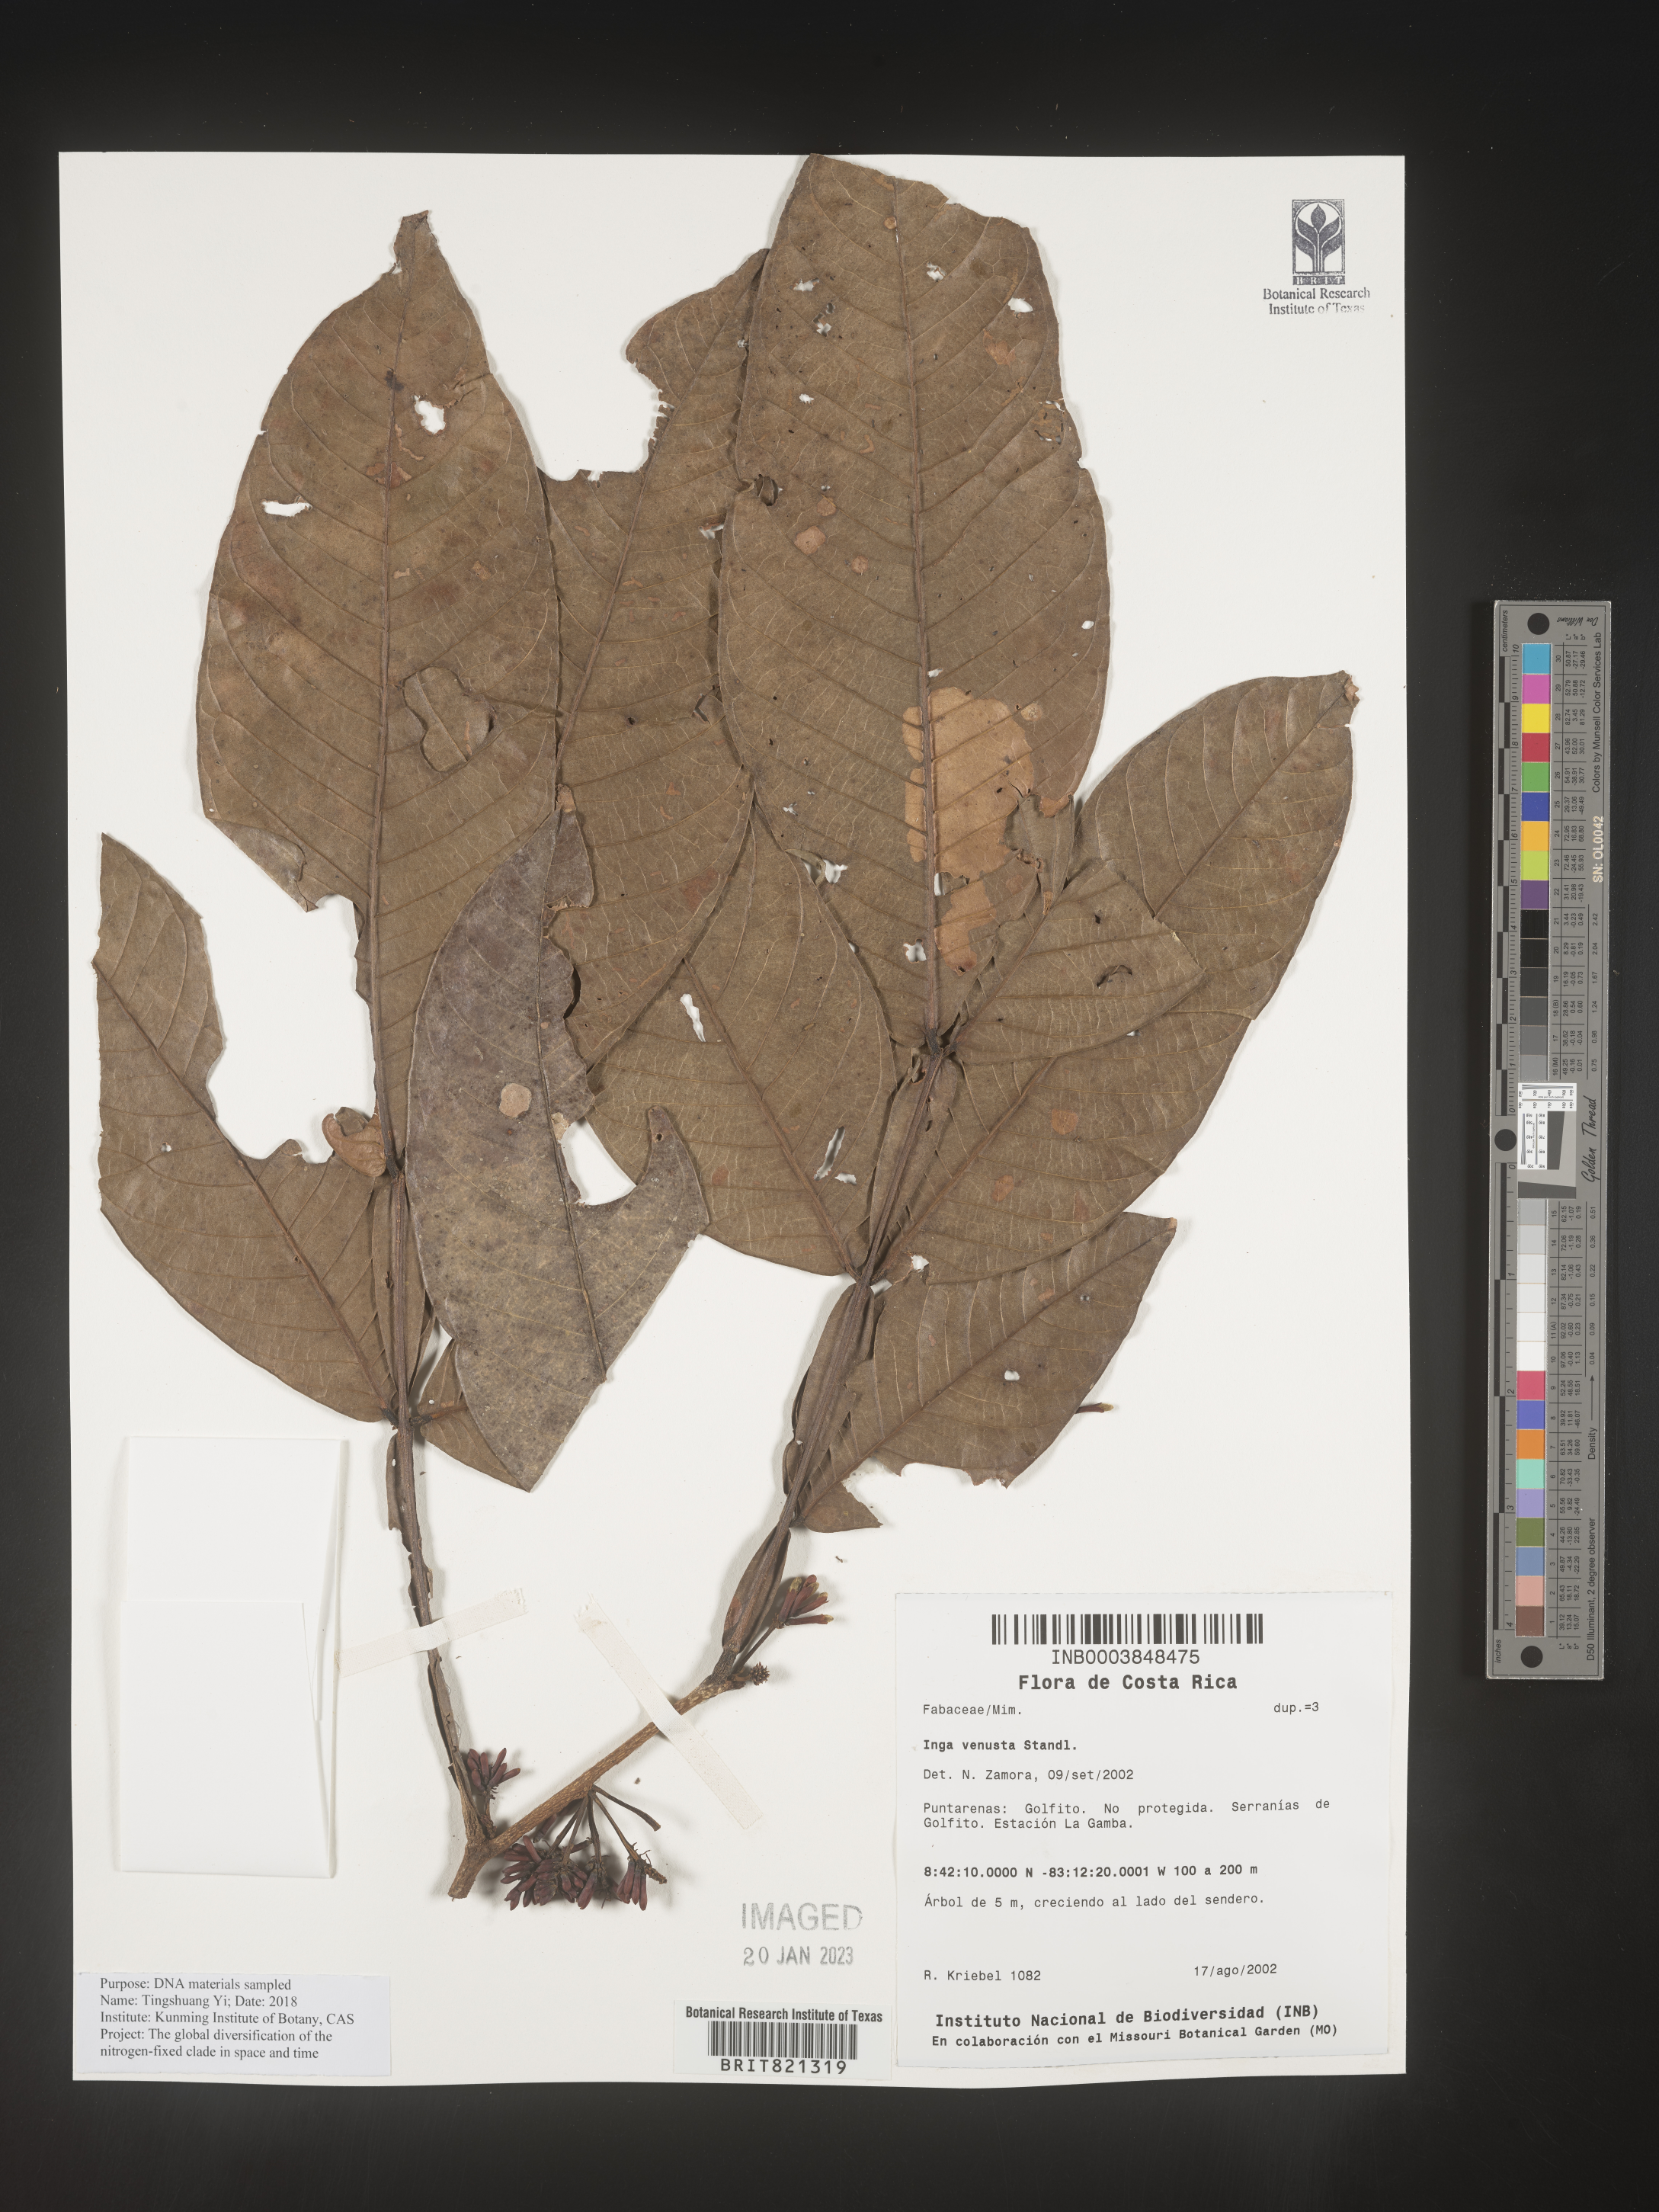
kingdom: Plantae
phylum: Tracheophyta
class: Magnoliopsida
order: Fabales
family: Fabaceae
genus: Inga
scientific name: Inga
